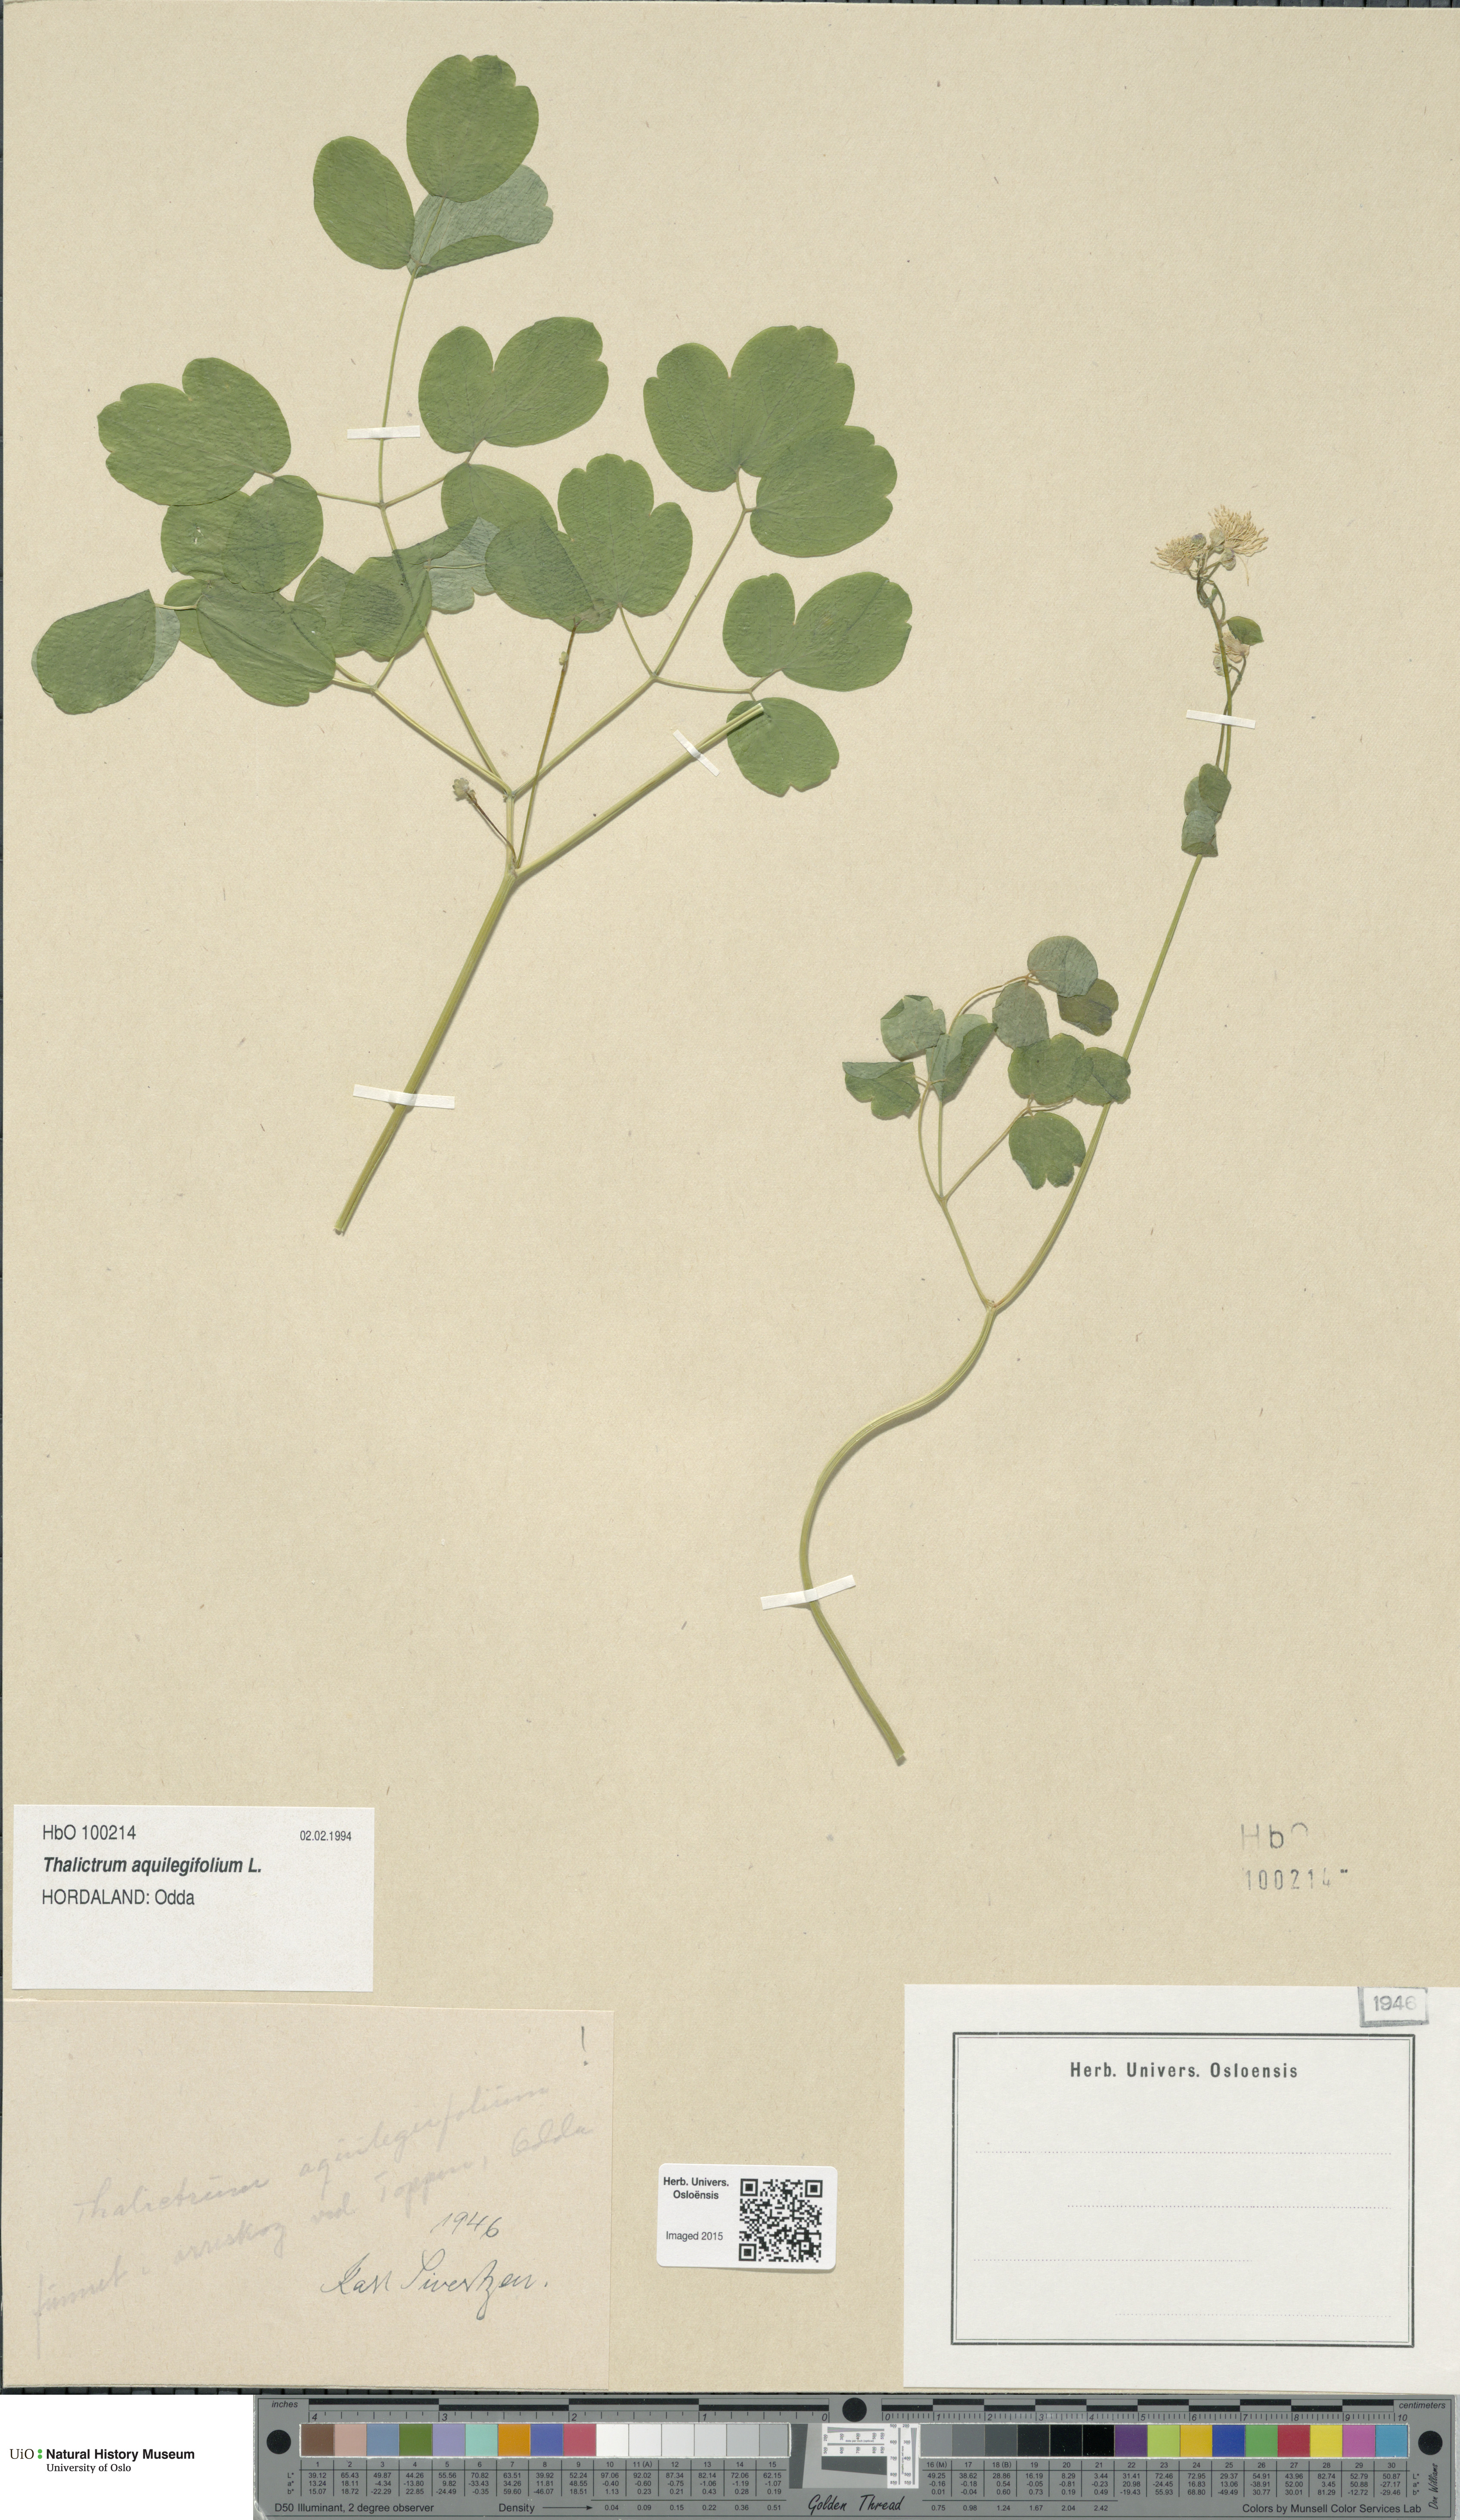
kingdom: Plantae
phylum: Tracheophyta
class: Magnoliopsida
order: Ranunculales
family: Ranunculaceae
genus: Thalictrum
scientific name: Thalictrum aquilegiifolium
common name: French meadow-rue
